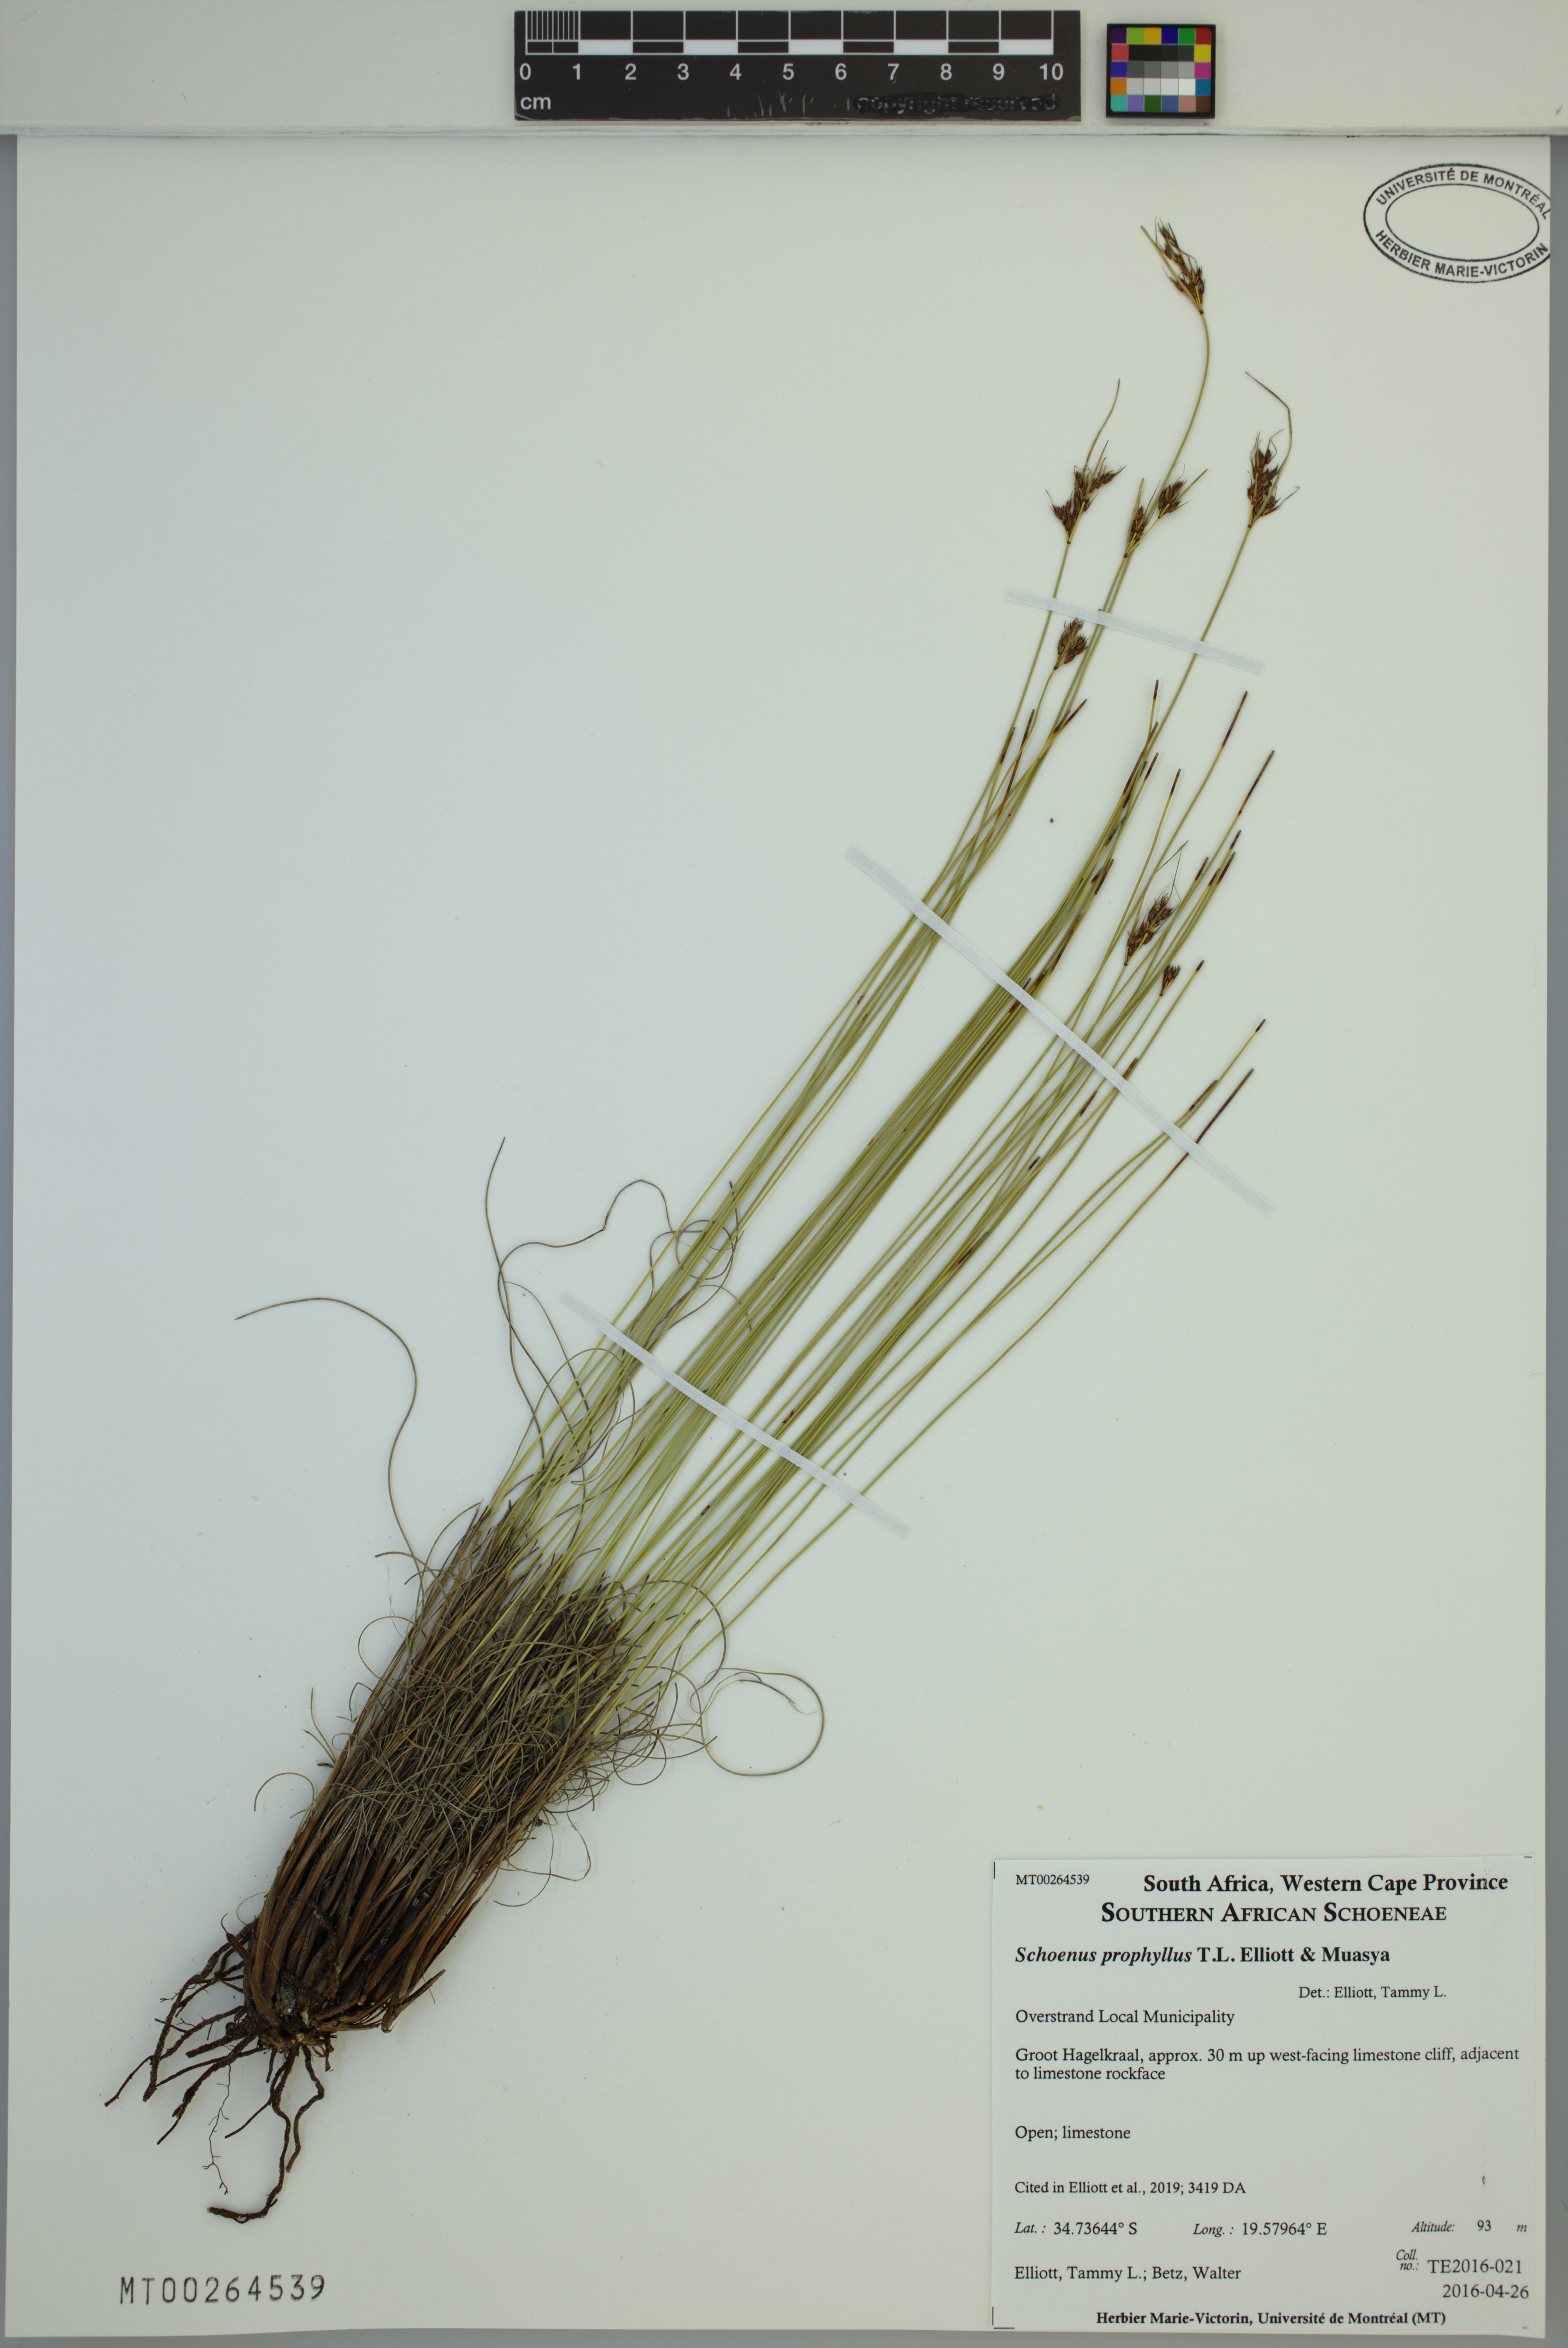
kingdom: Plantae
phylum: Tracheophyta
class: Liliopsida
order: Poales
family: Cyperaceae
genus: Schoenus
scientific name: Schoenus prophyllus
